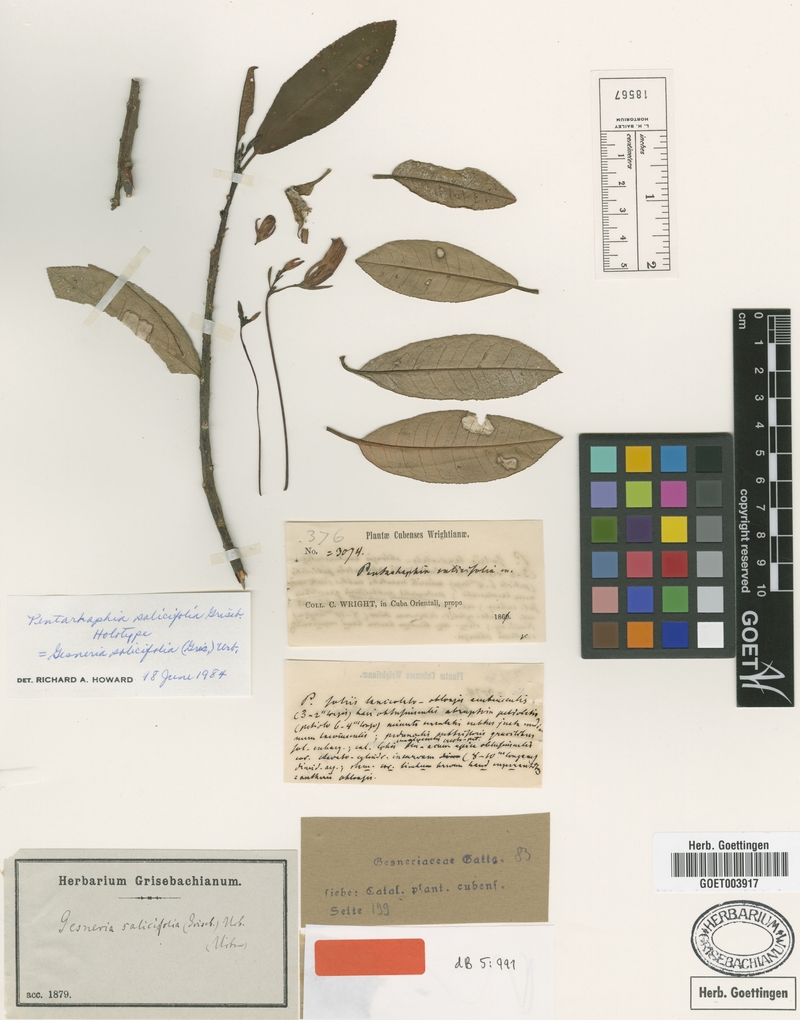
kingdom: Plantae
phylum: Tracheophyta
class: Magnoliopsida
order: Lamiales
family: Gesneriaceae
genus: Gesneria
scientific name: Gesneria salicifolia
